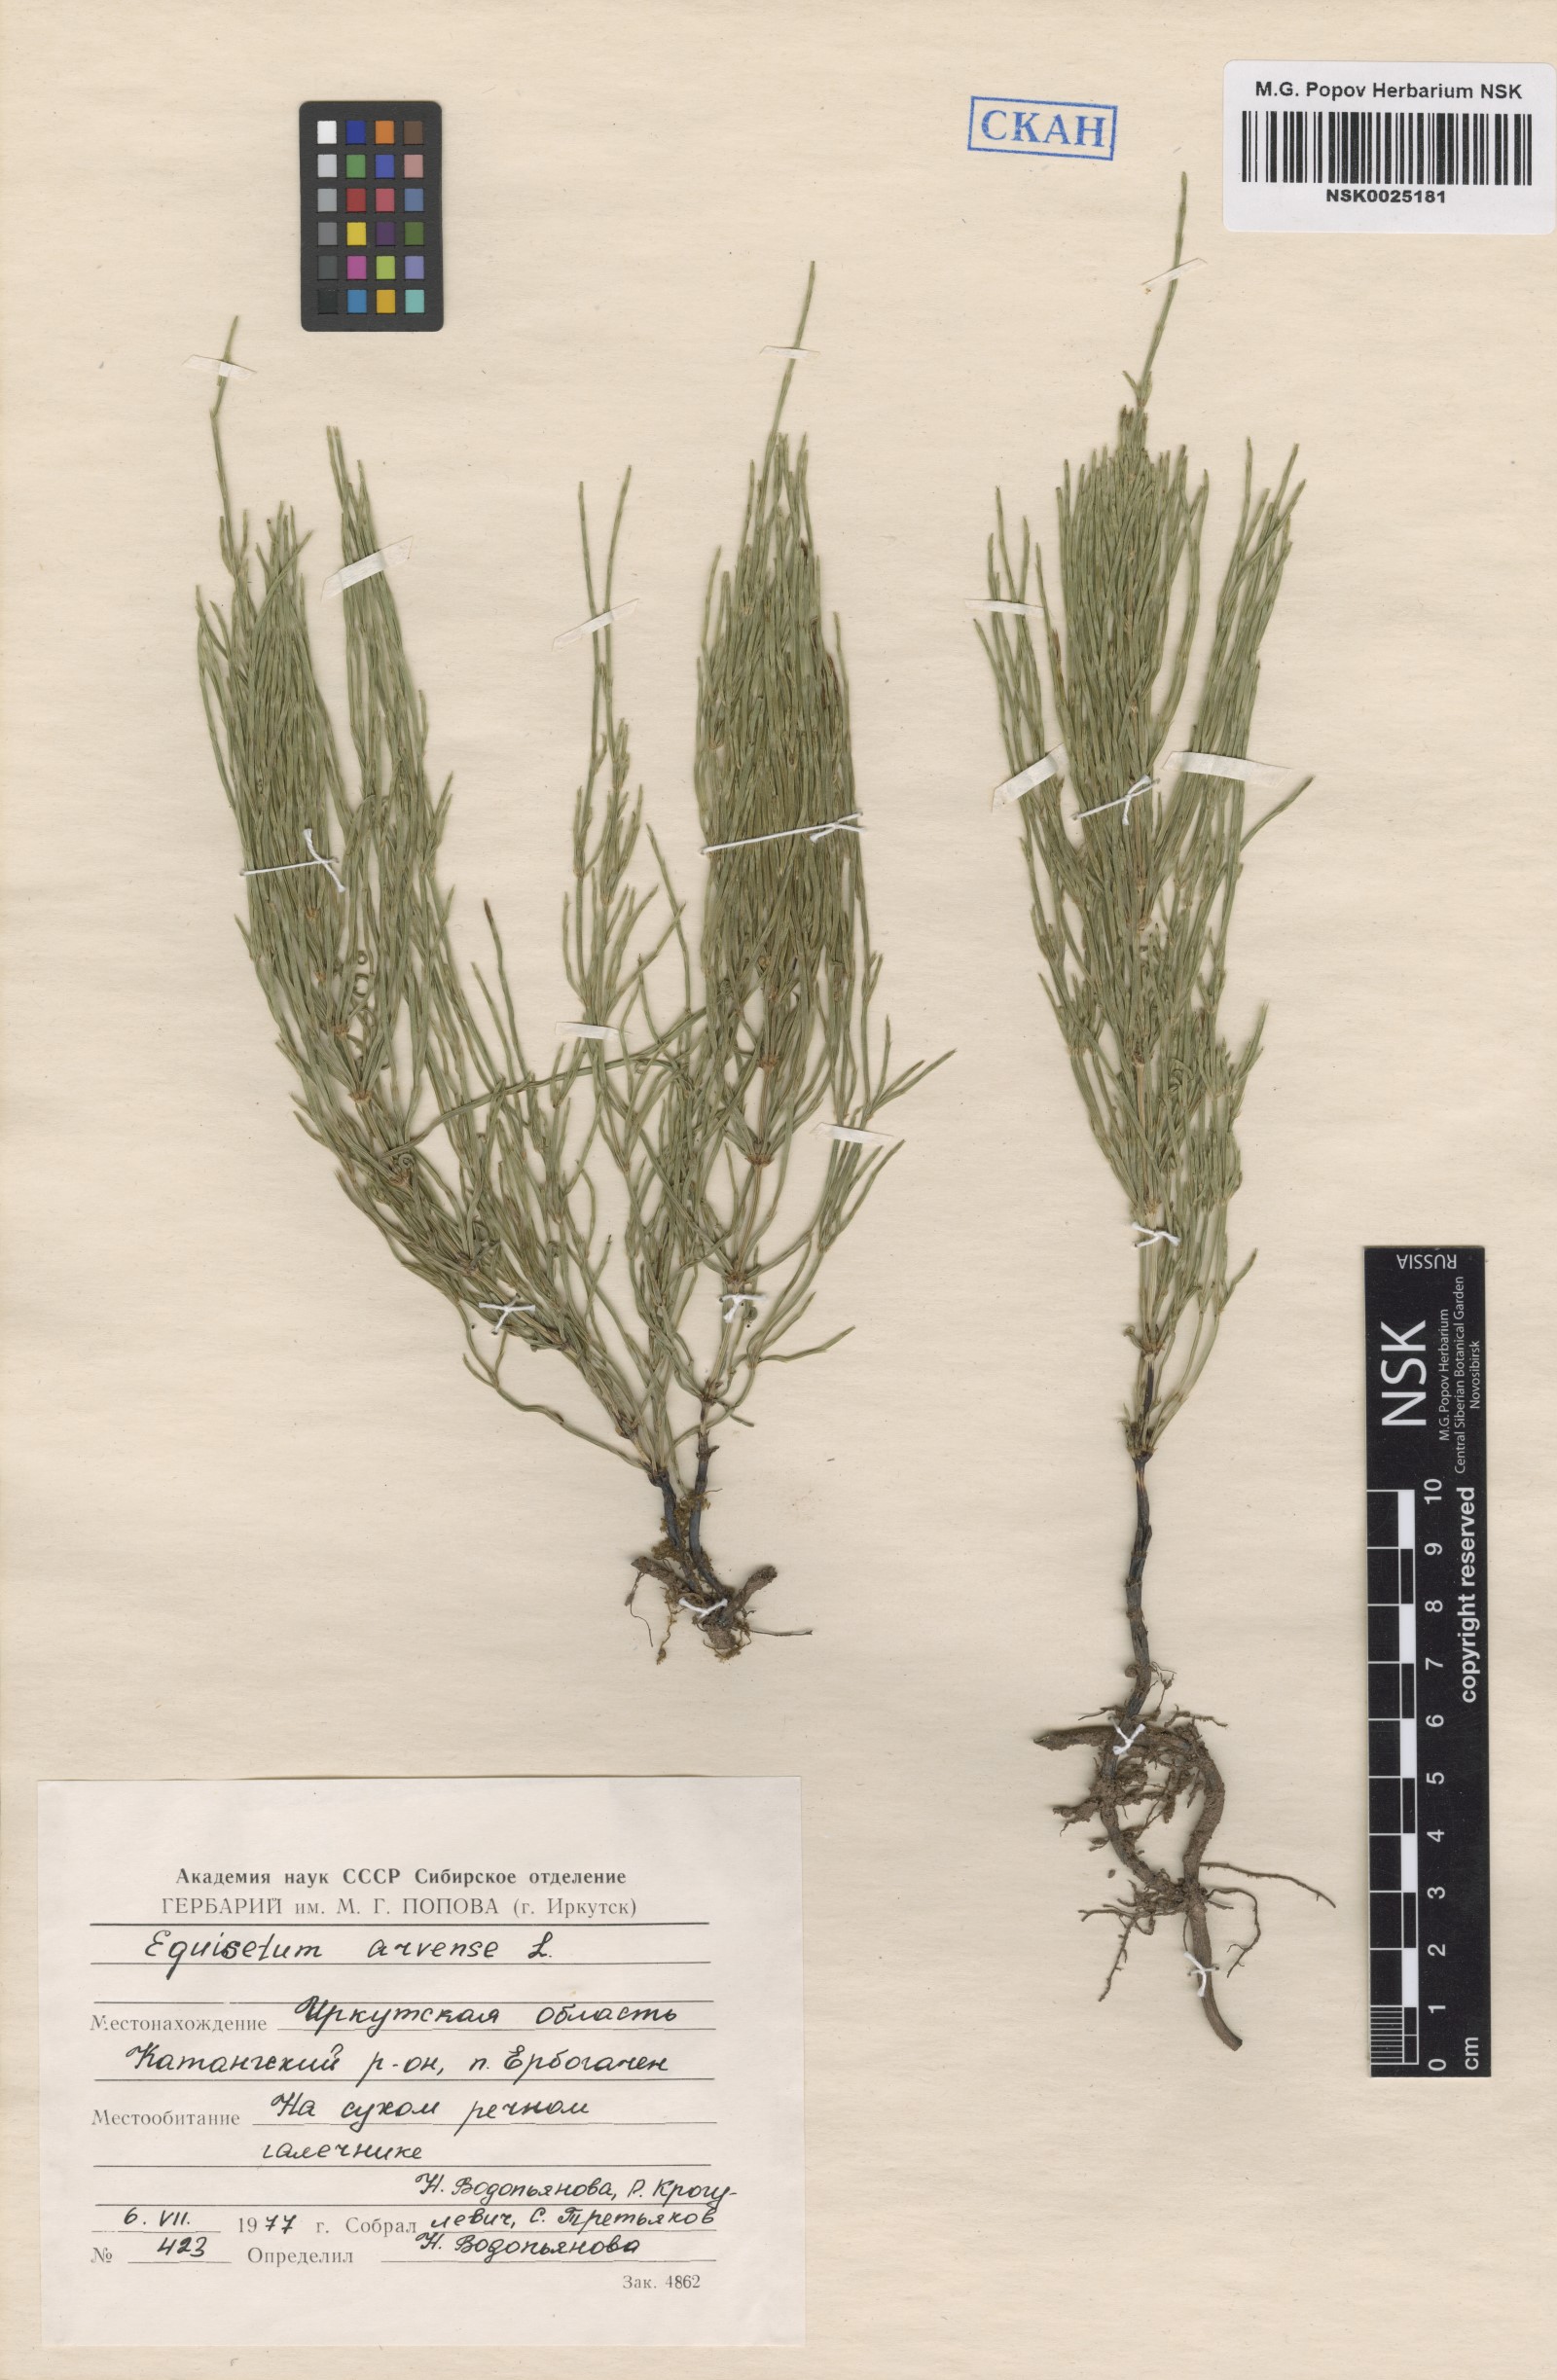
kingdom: Plantae
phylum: Tracheophyta
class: Polypodiopsida
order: Equisetales
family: Equisetaceae
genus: Equisetum
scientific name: Equisetum arvense
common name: Field horsetail
